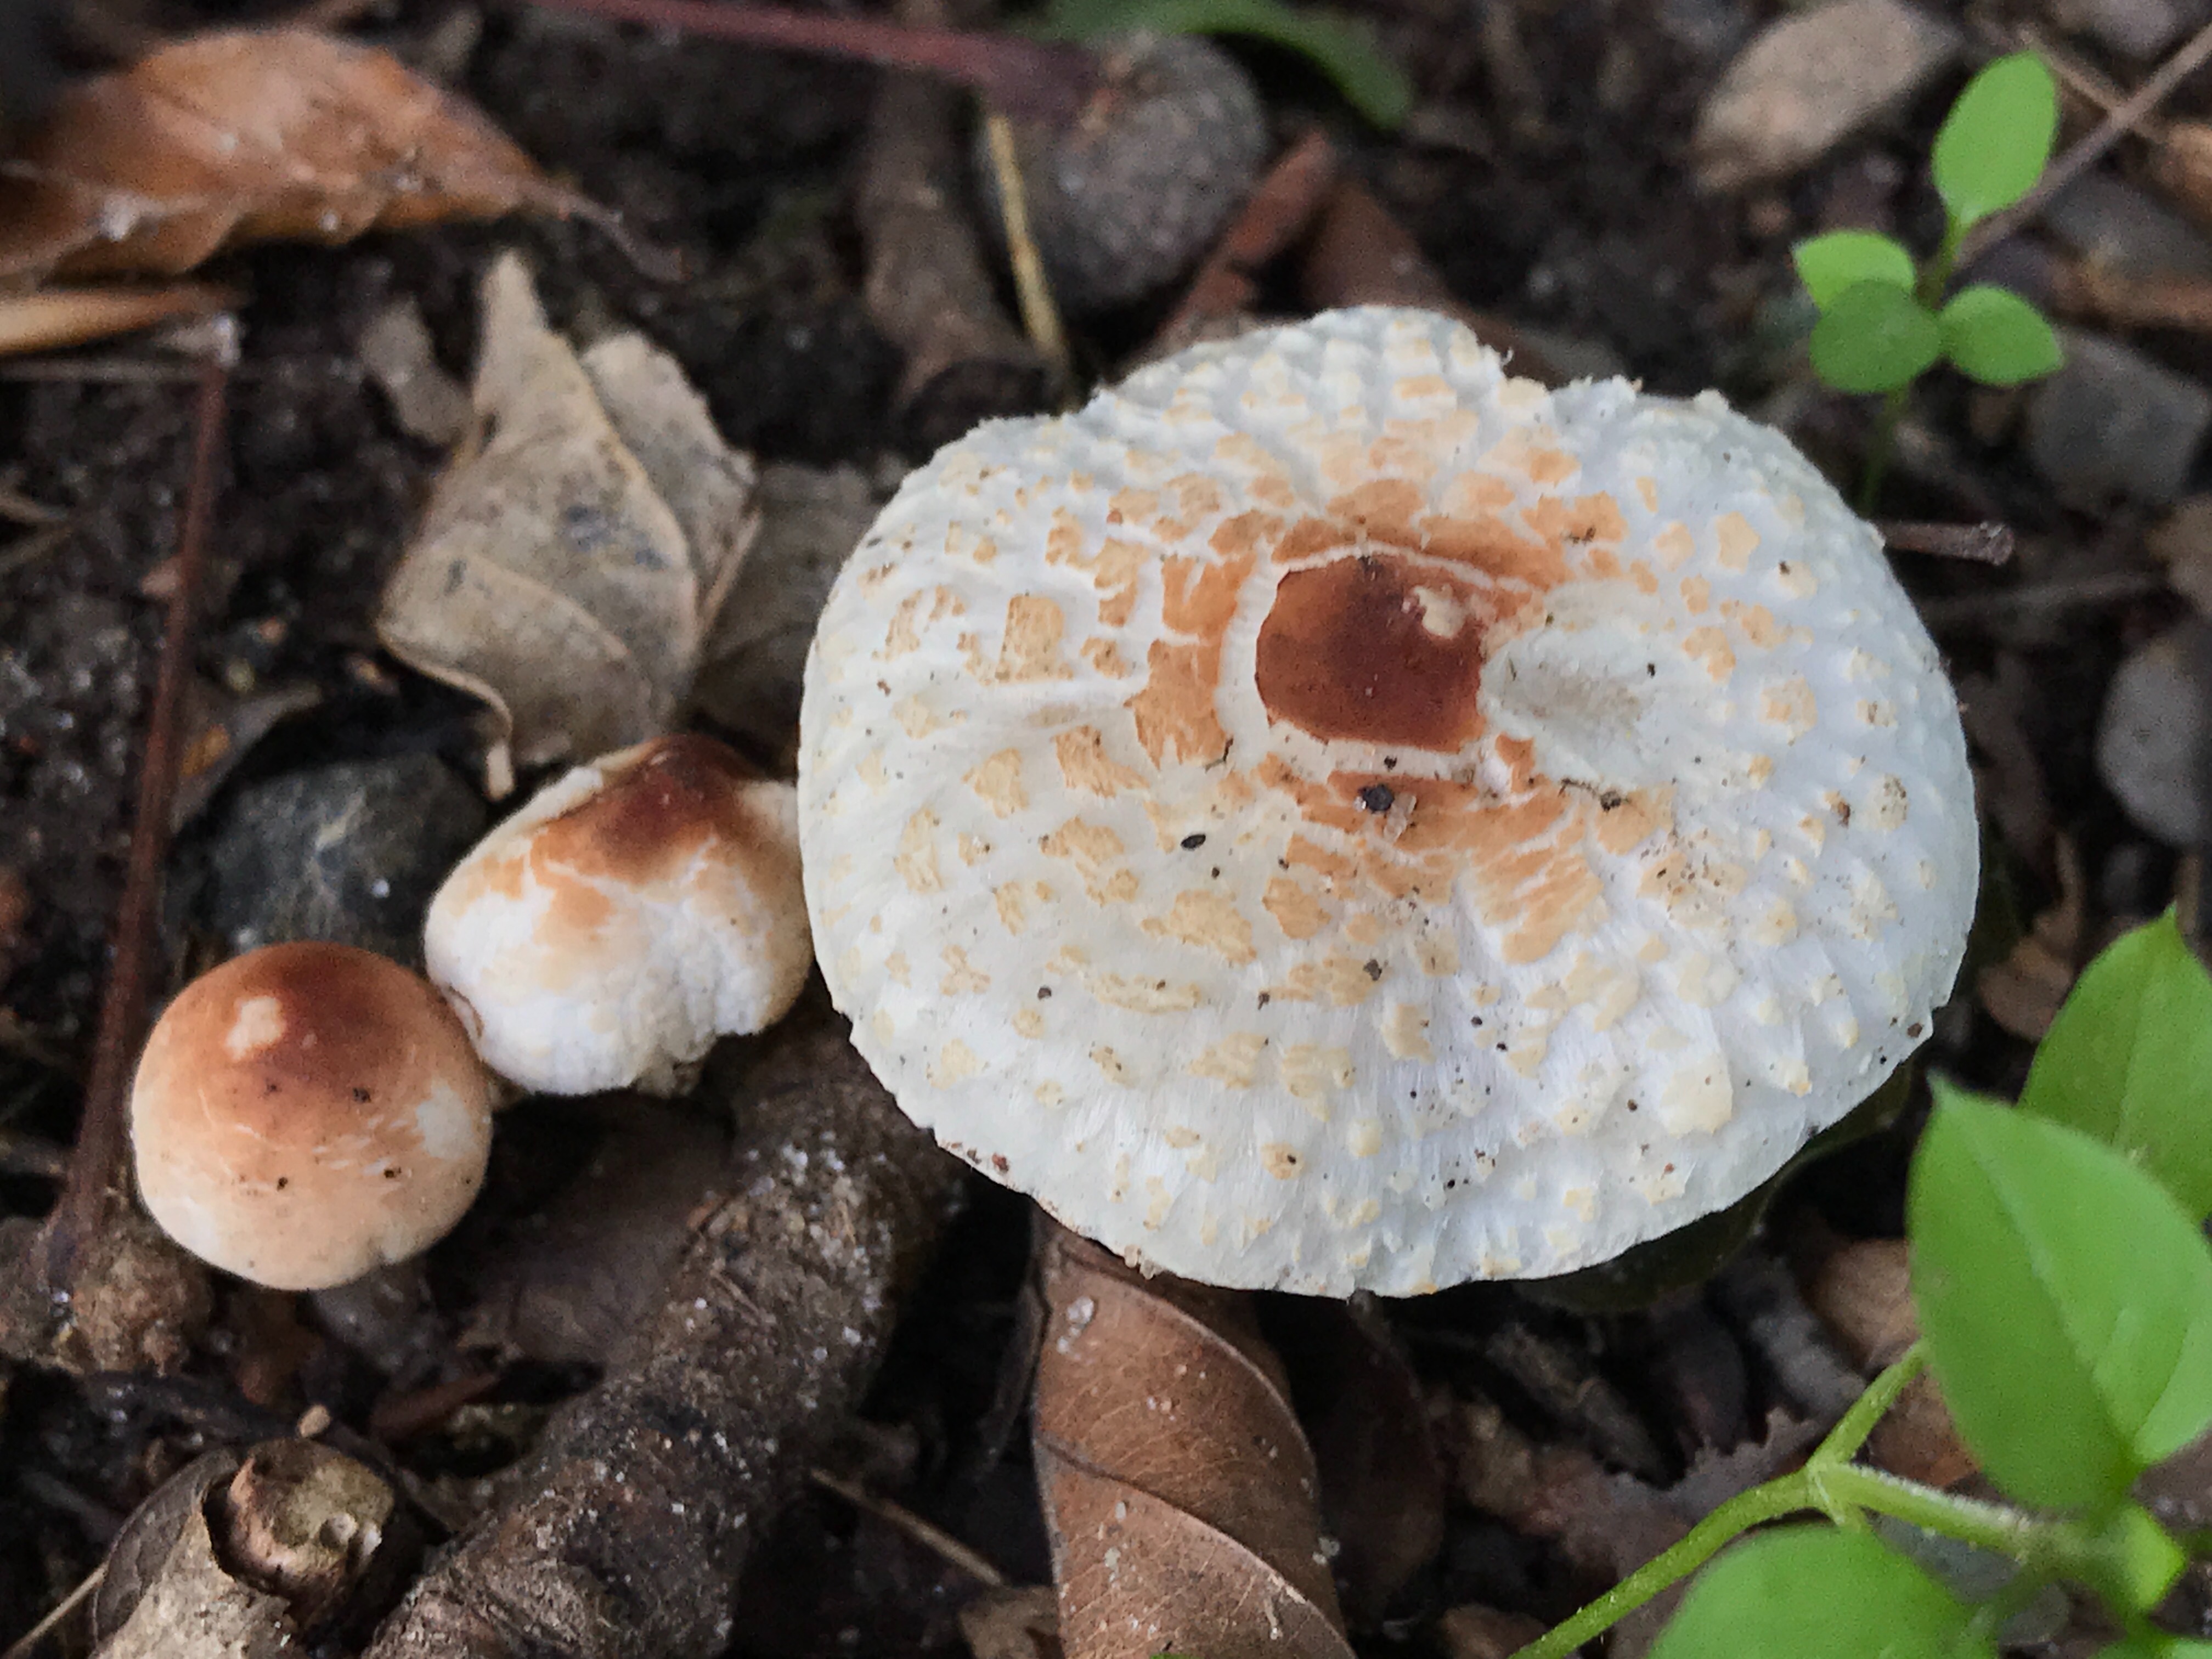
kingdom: Fungi
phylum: Basidiomycota
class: Agaricomycetes
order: Agaricales
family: Agaricaceae
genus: Lepiota
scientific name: Lepiota cristata
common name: stinkende parasolhat
